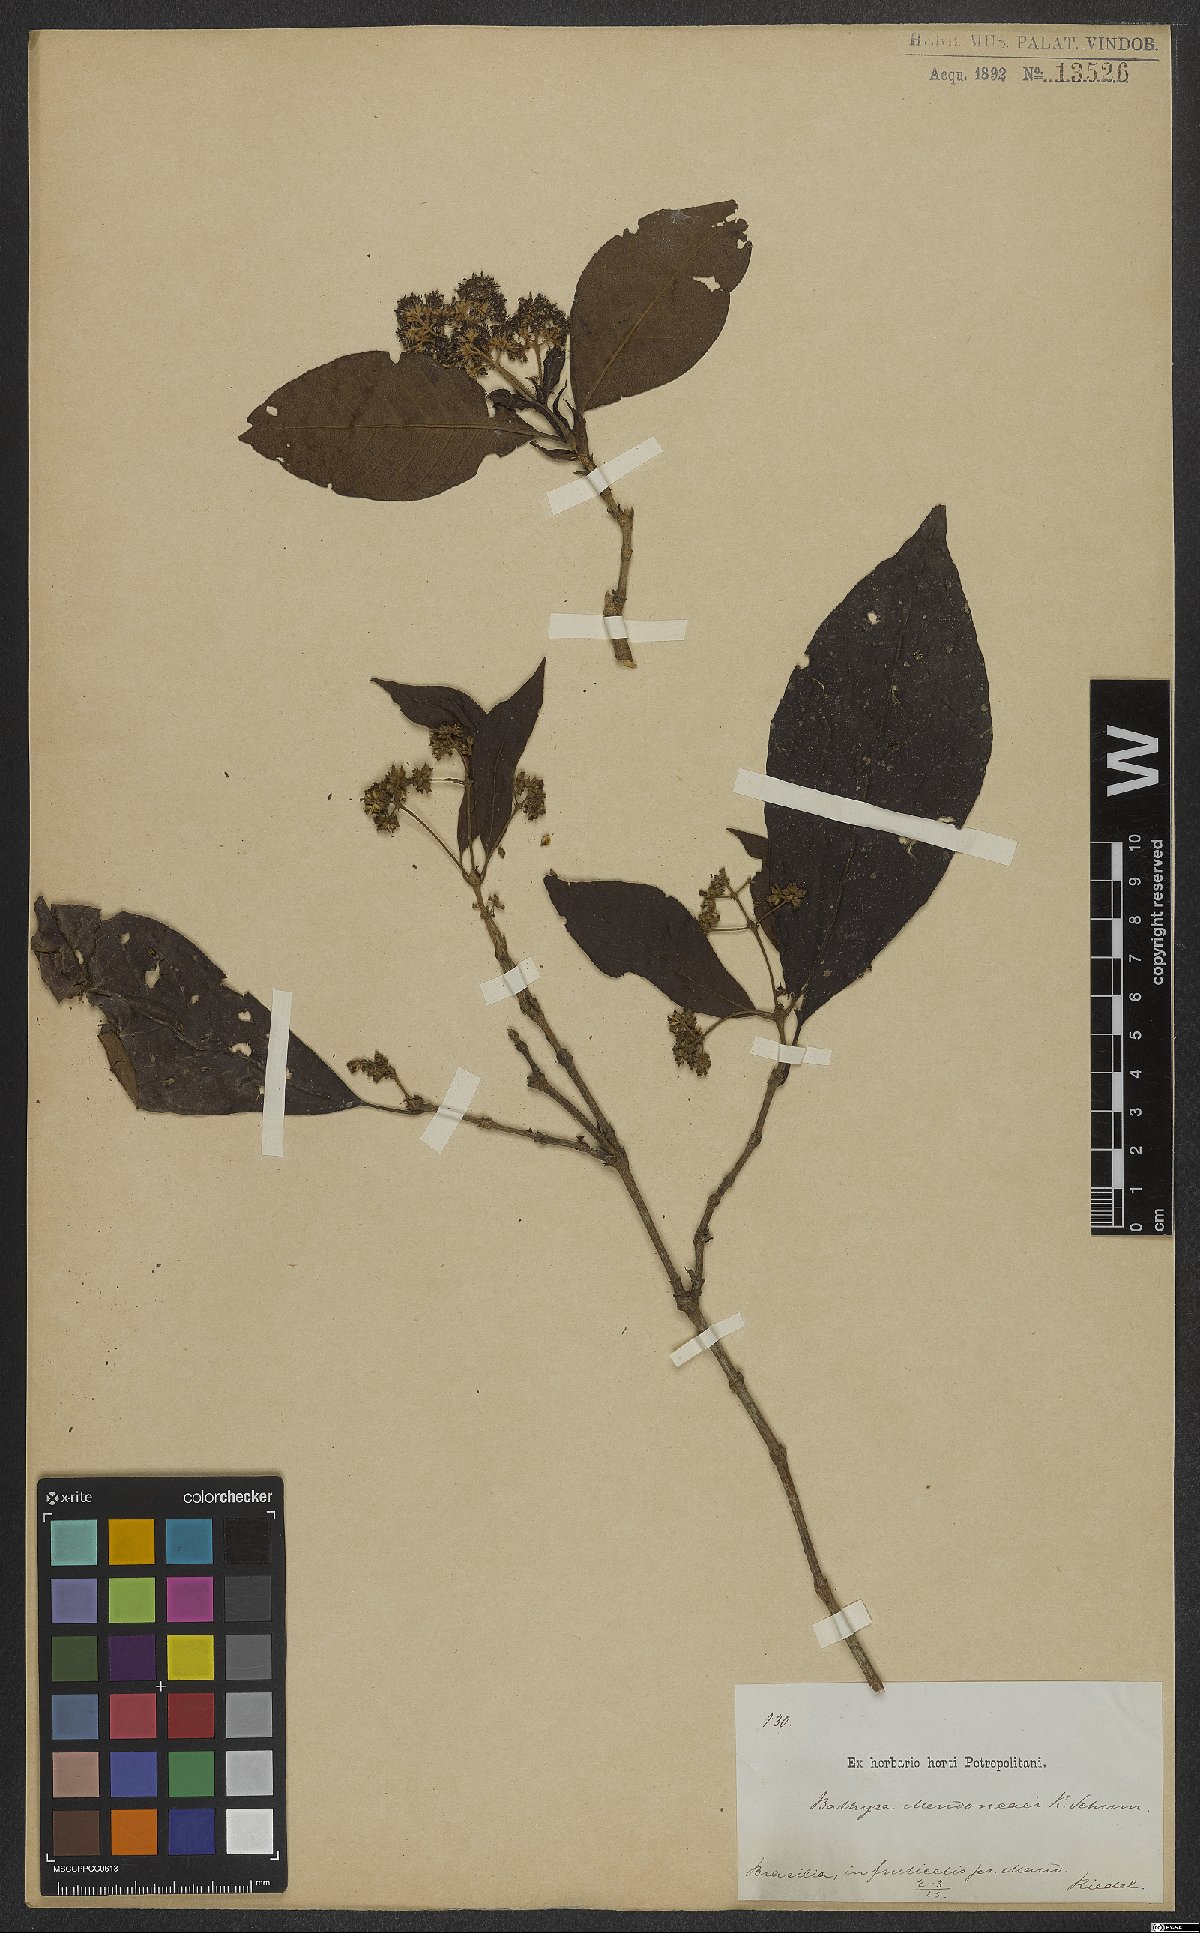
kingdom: Plantae
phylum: Tracheophyta
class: Magnoliopsida
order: Gentianales
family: Rubiaceae
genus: Bathysa
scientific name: Bathysa mendoncaei
